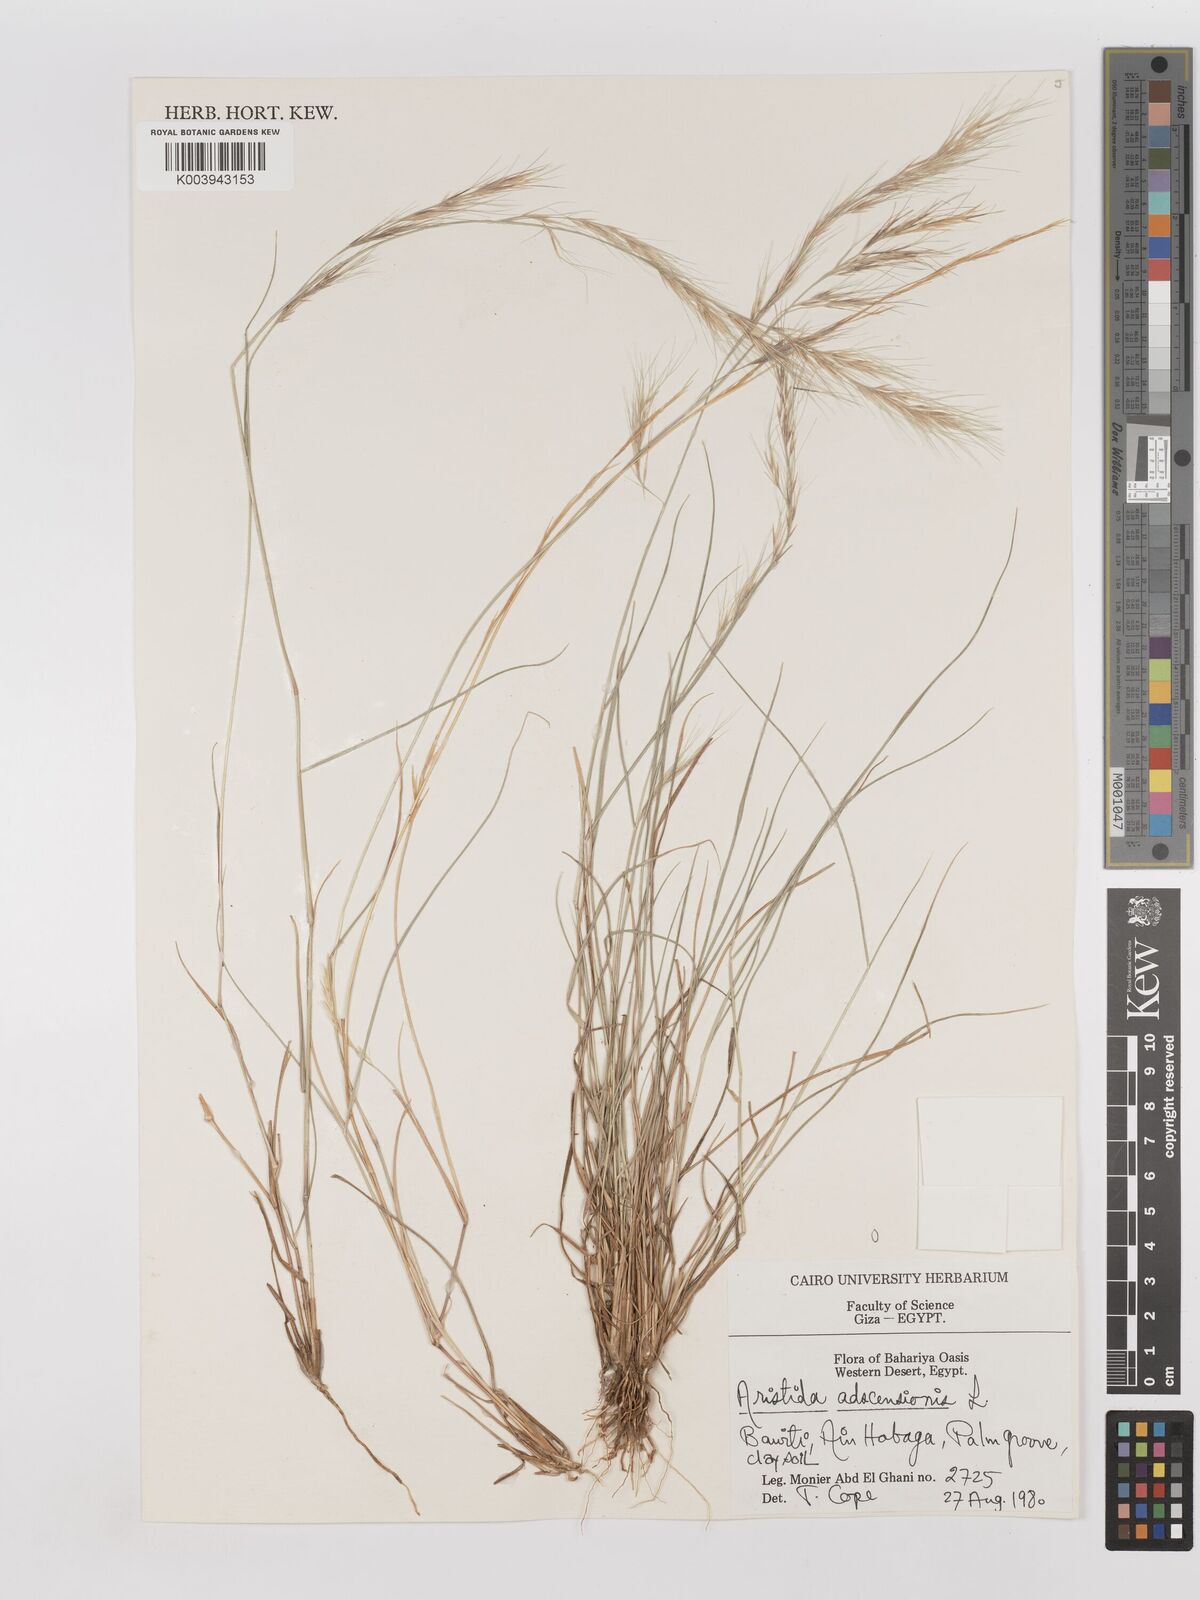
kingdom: Plantae
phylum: Tracheophyta
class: Liliopsida
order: Poales
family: Poaceae
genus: Aristida
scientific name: Aristida adscensionis
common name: Sixweeks threeawn
